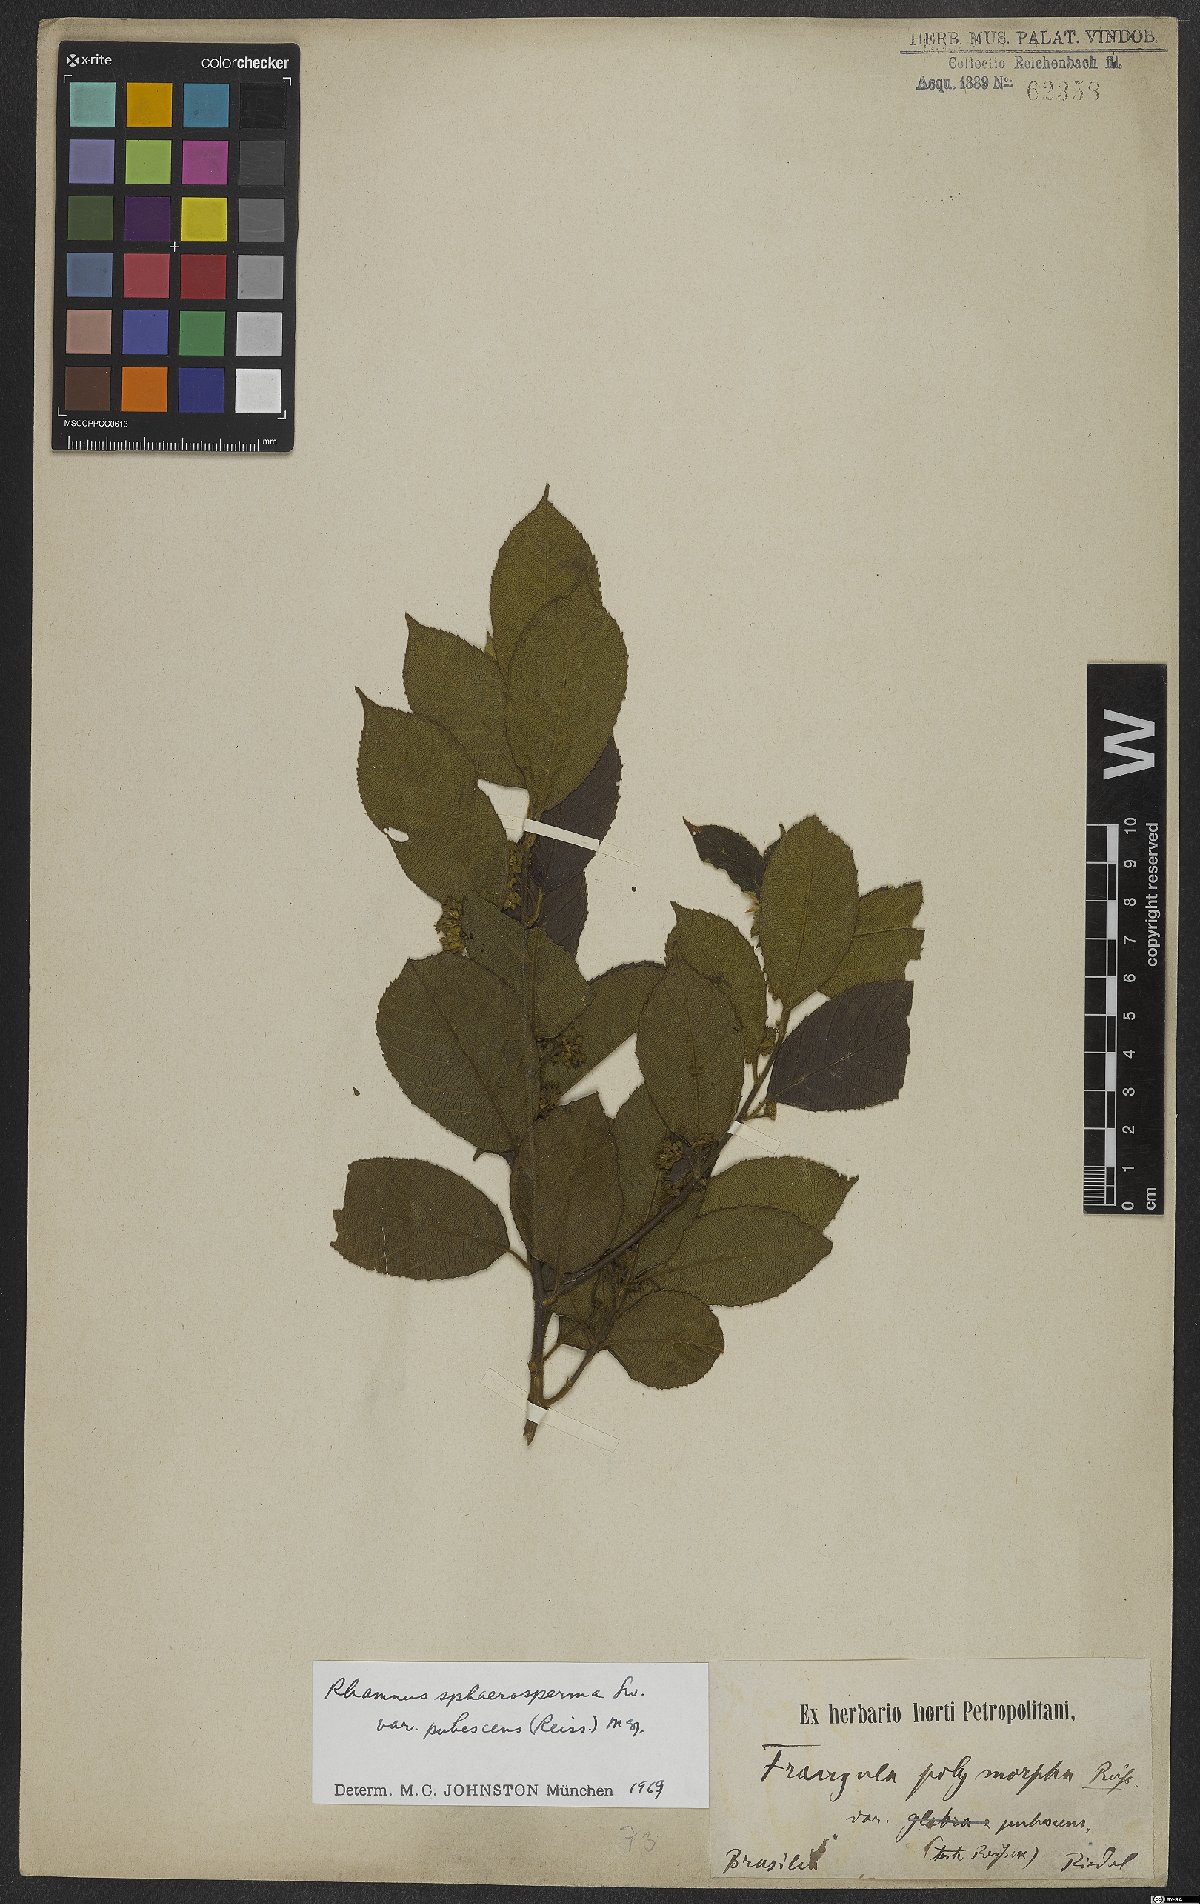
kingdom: Plantae
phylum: Tracheophyta
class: Magnoliopsida
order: Rosales
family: Rhamnaceae
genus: Frangula
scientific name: Frangula sphaerosperma
